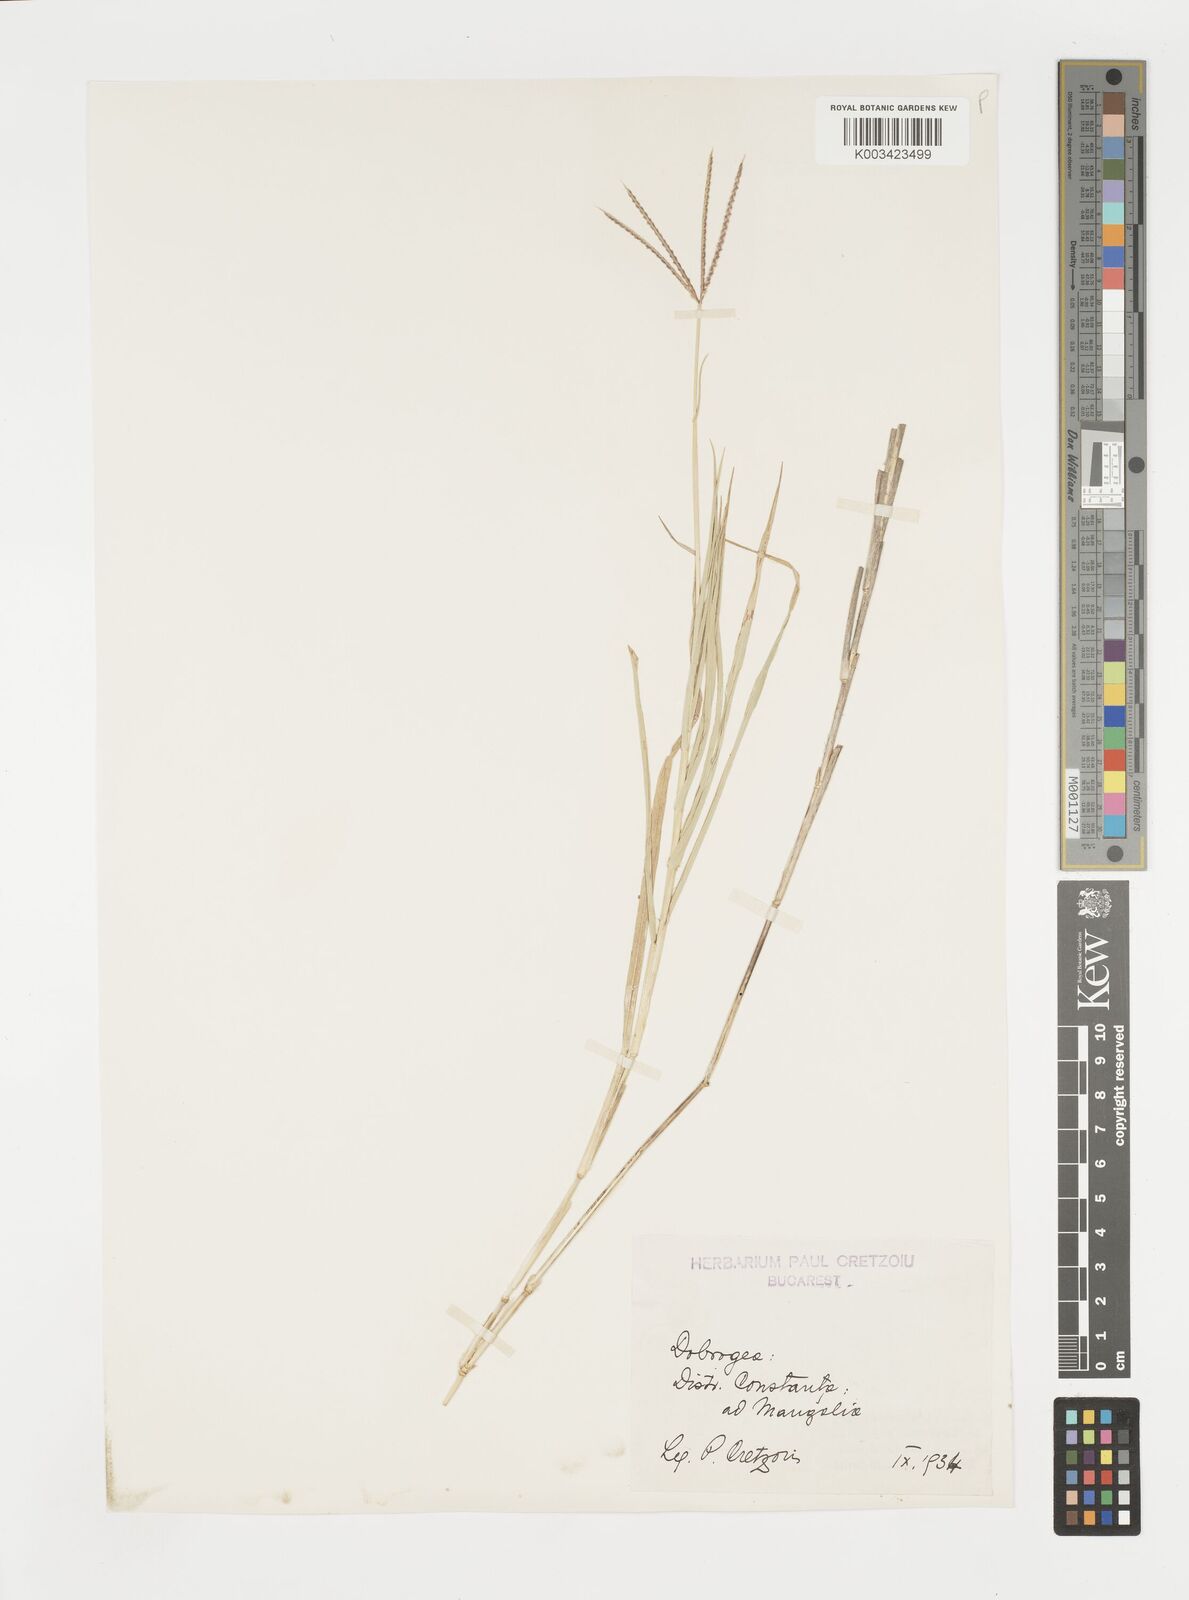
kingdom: Plantae
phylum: Tracheophyta
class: Liliopsida
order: Poales
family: Poaceae
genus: Cynodon
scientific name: Cynodon dactylon
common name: Bermuda grass
